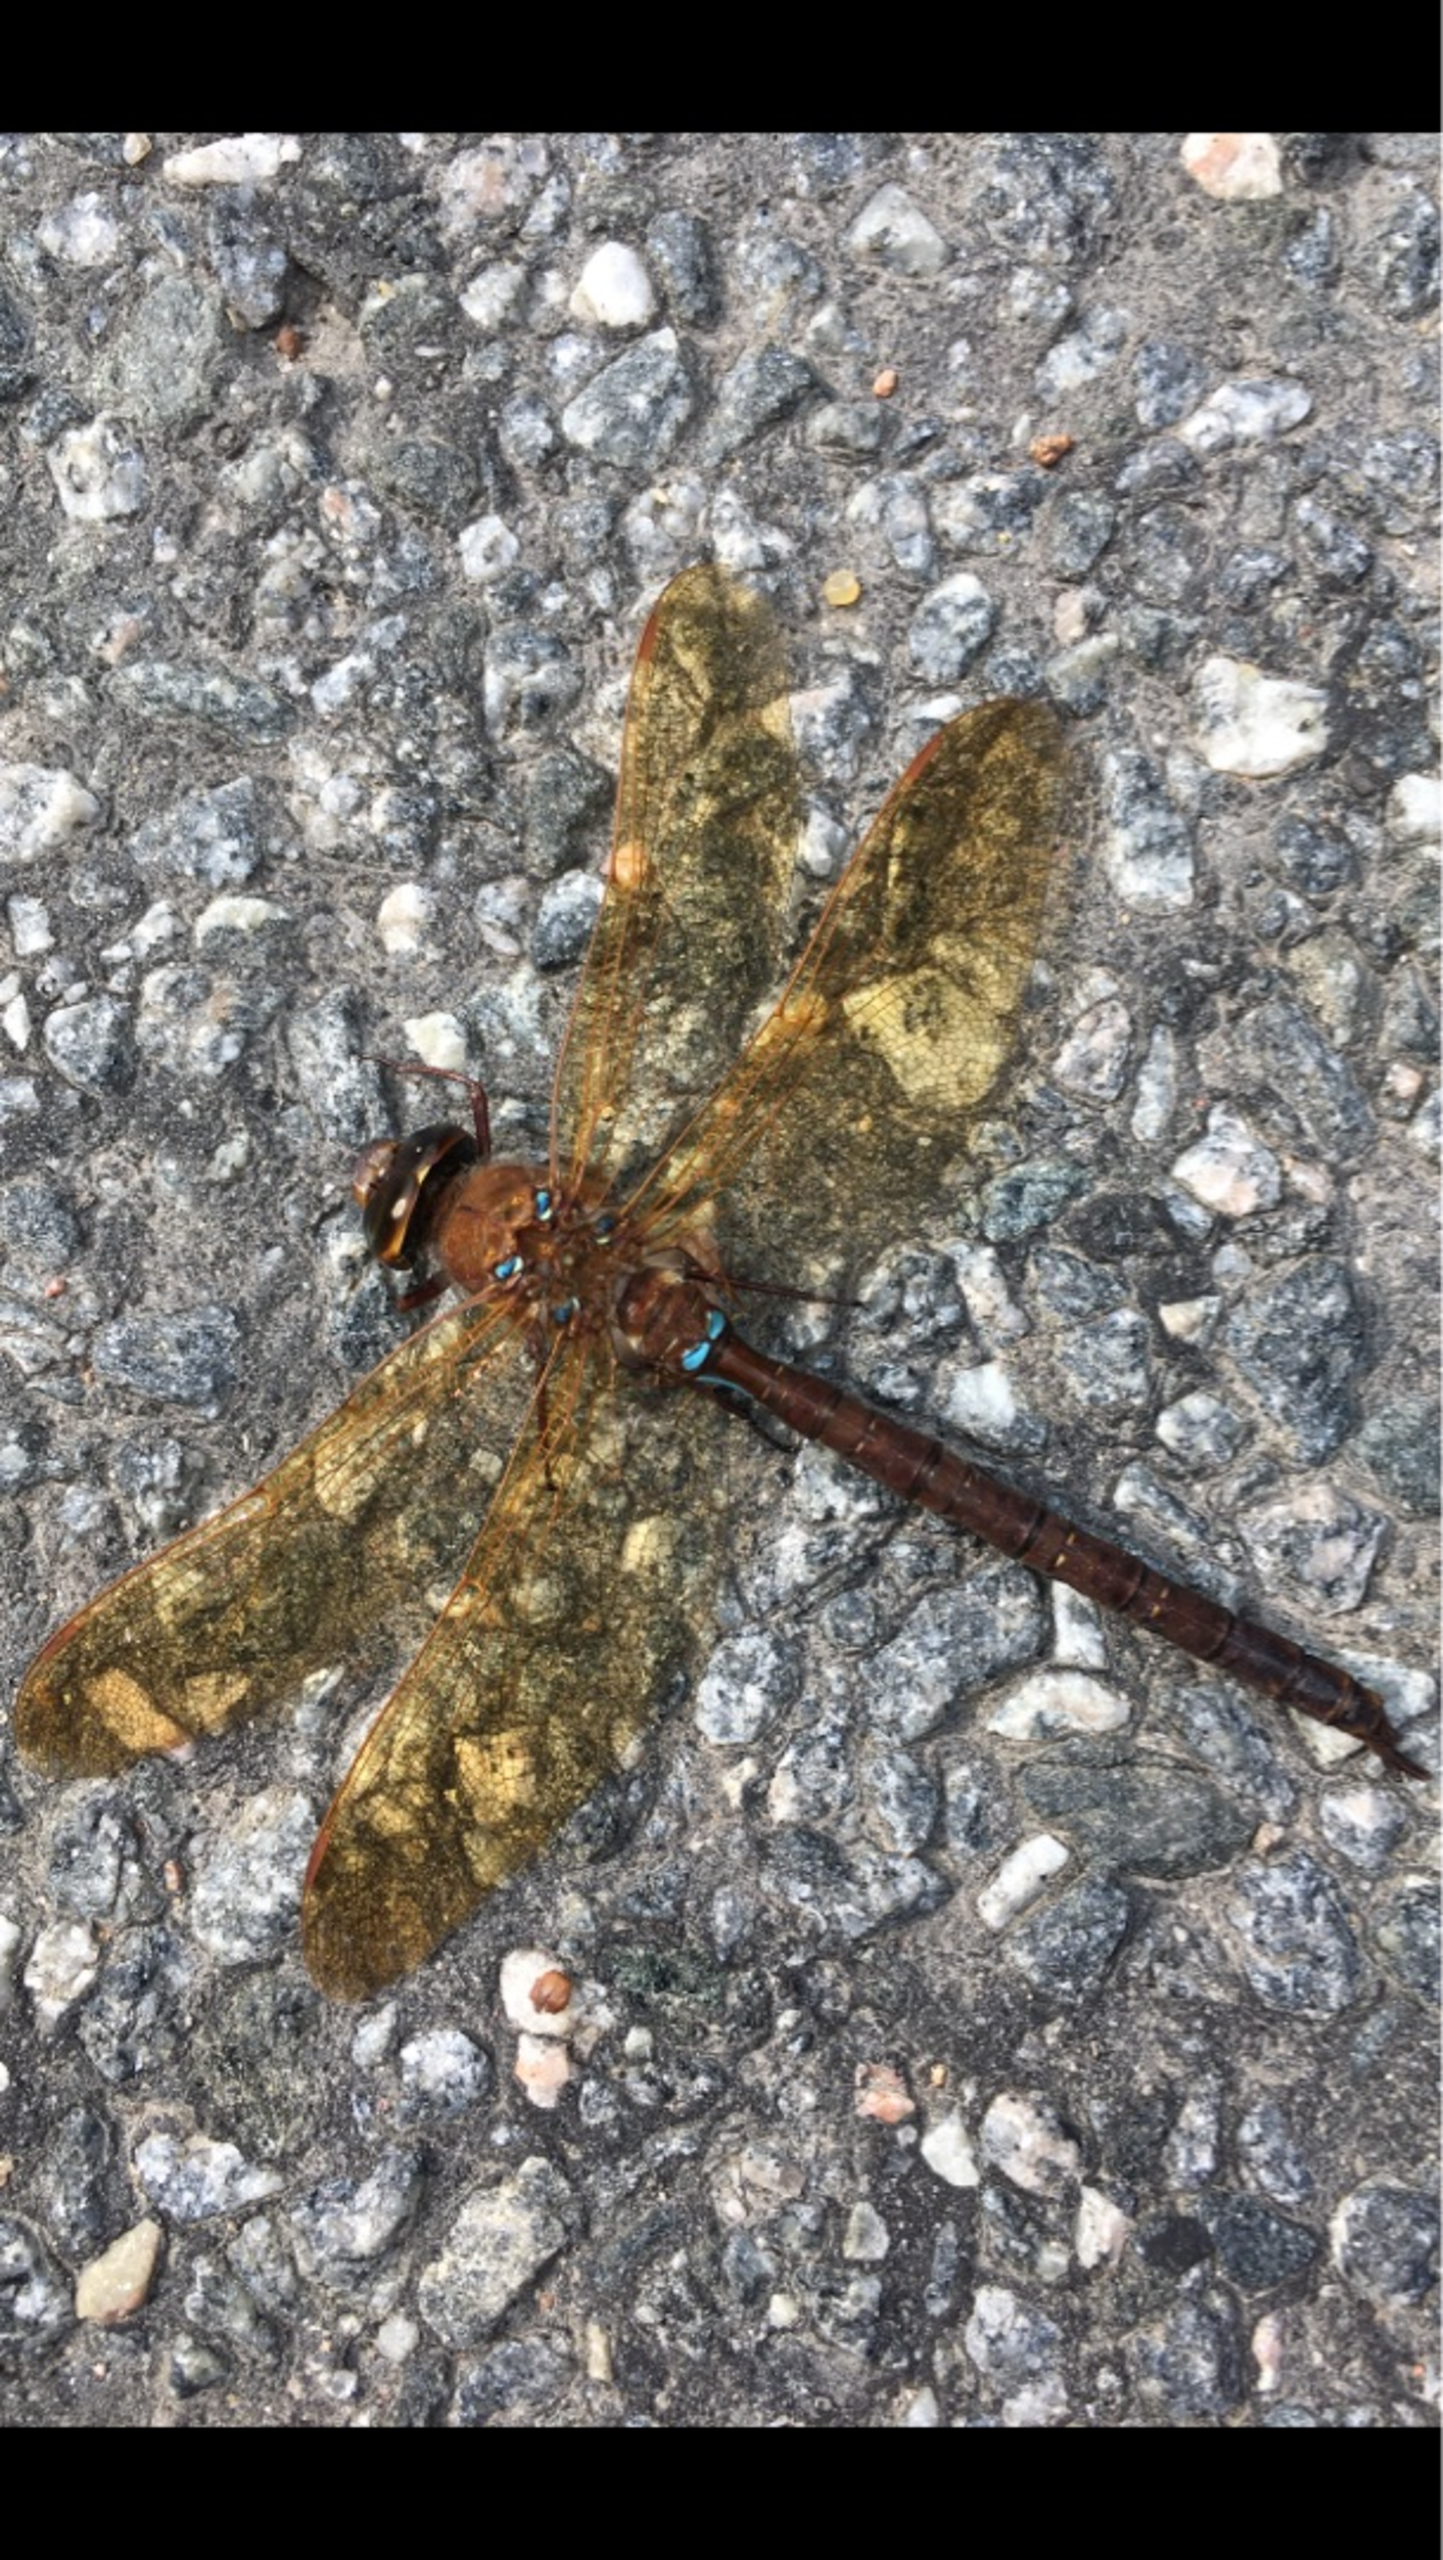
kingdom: Animalia
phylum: Arthropoda
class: Insecta
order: Odonata
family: Aeshnidae
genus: Aeshna
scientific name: Aeshna grandis
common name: Brun mosaikguldsmed
